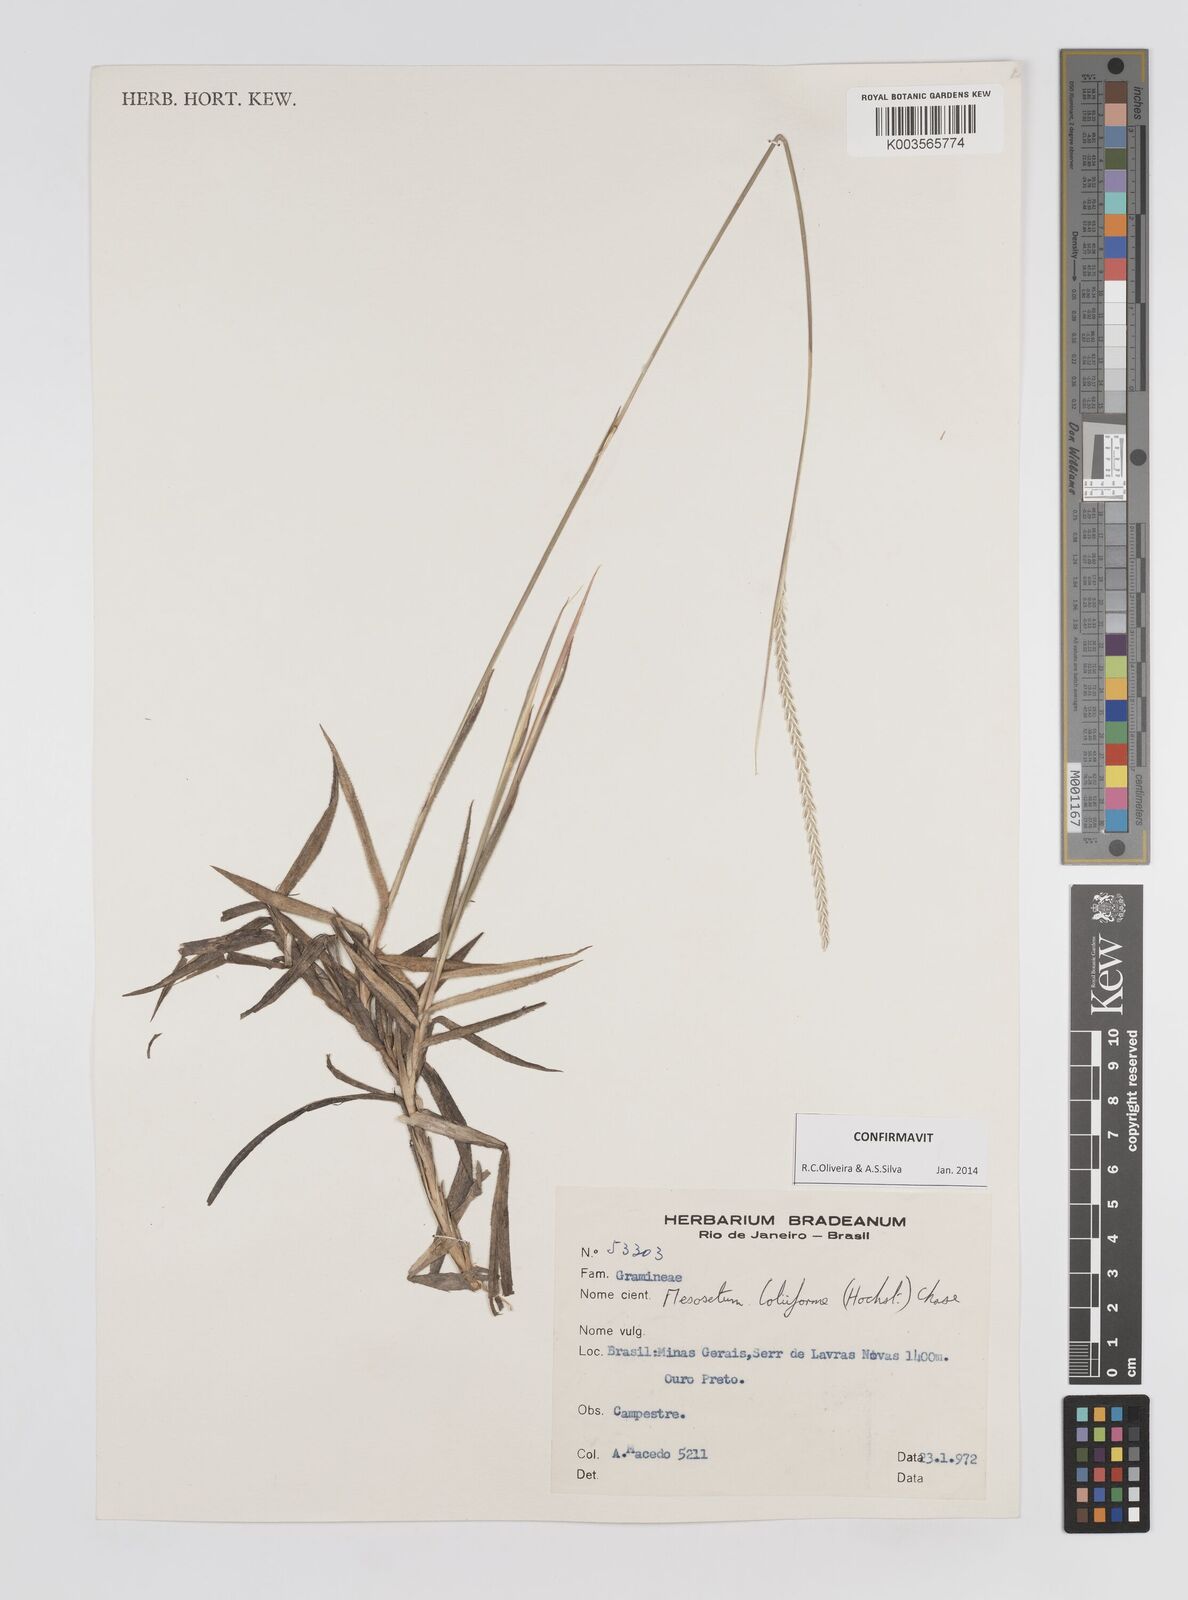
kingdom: Plantae
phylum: Tracheophyta
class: Liliopsida
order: Poales
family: Poaceae
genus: Mesosetum
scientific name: Mesosetum loliiforme
